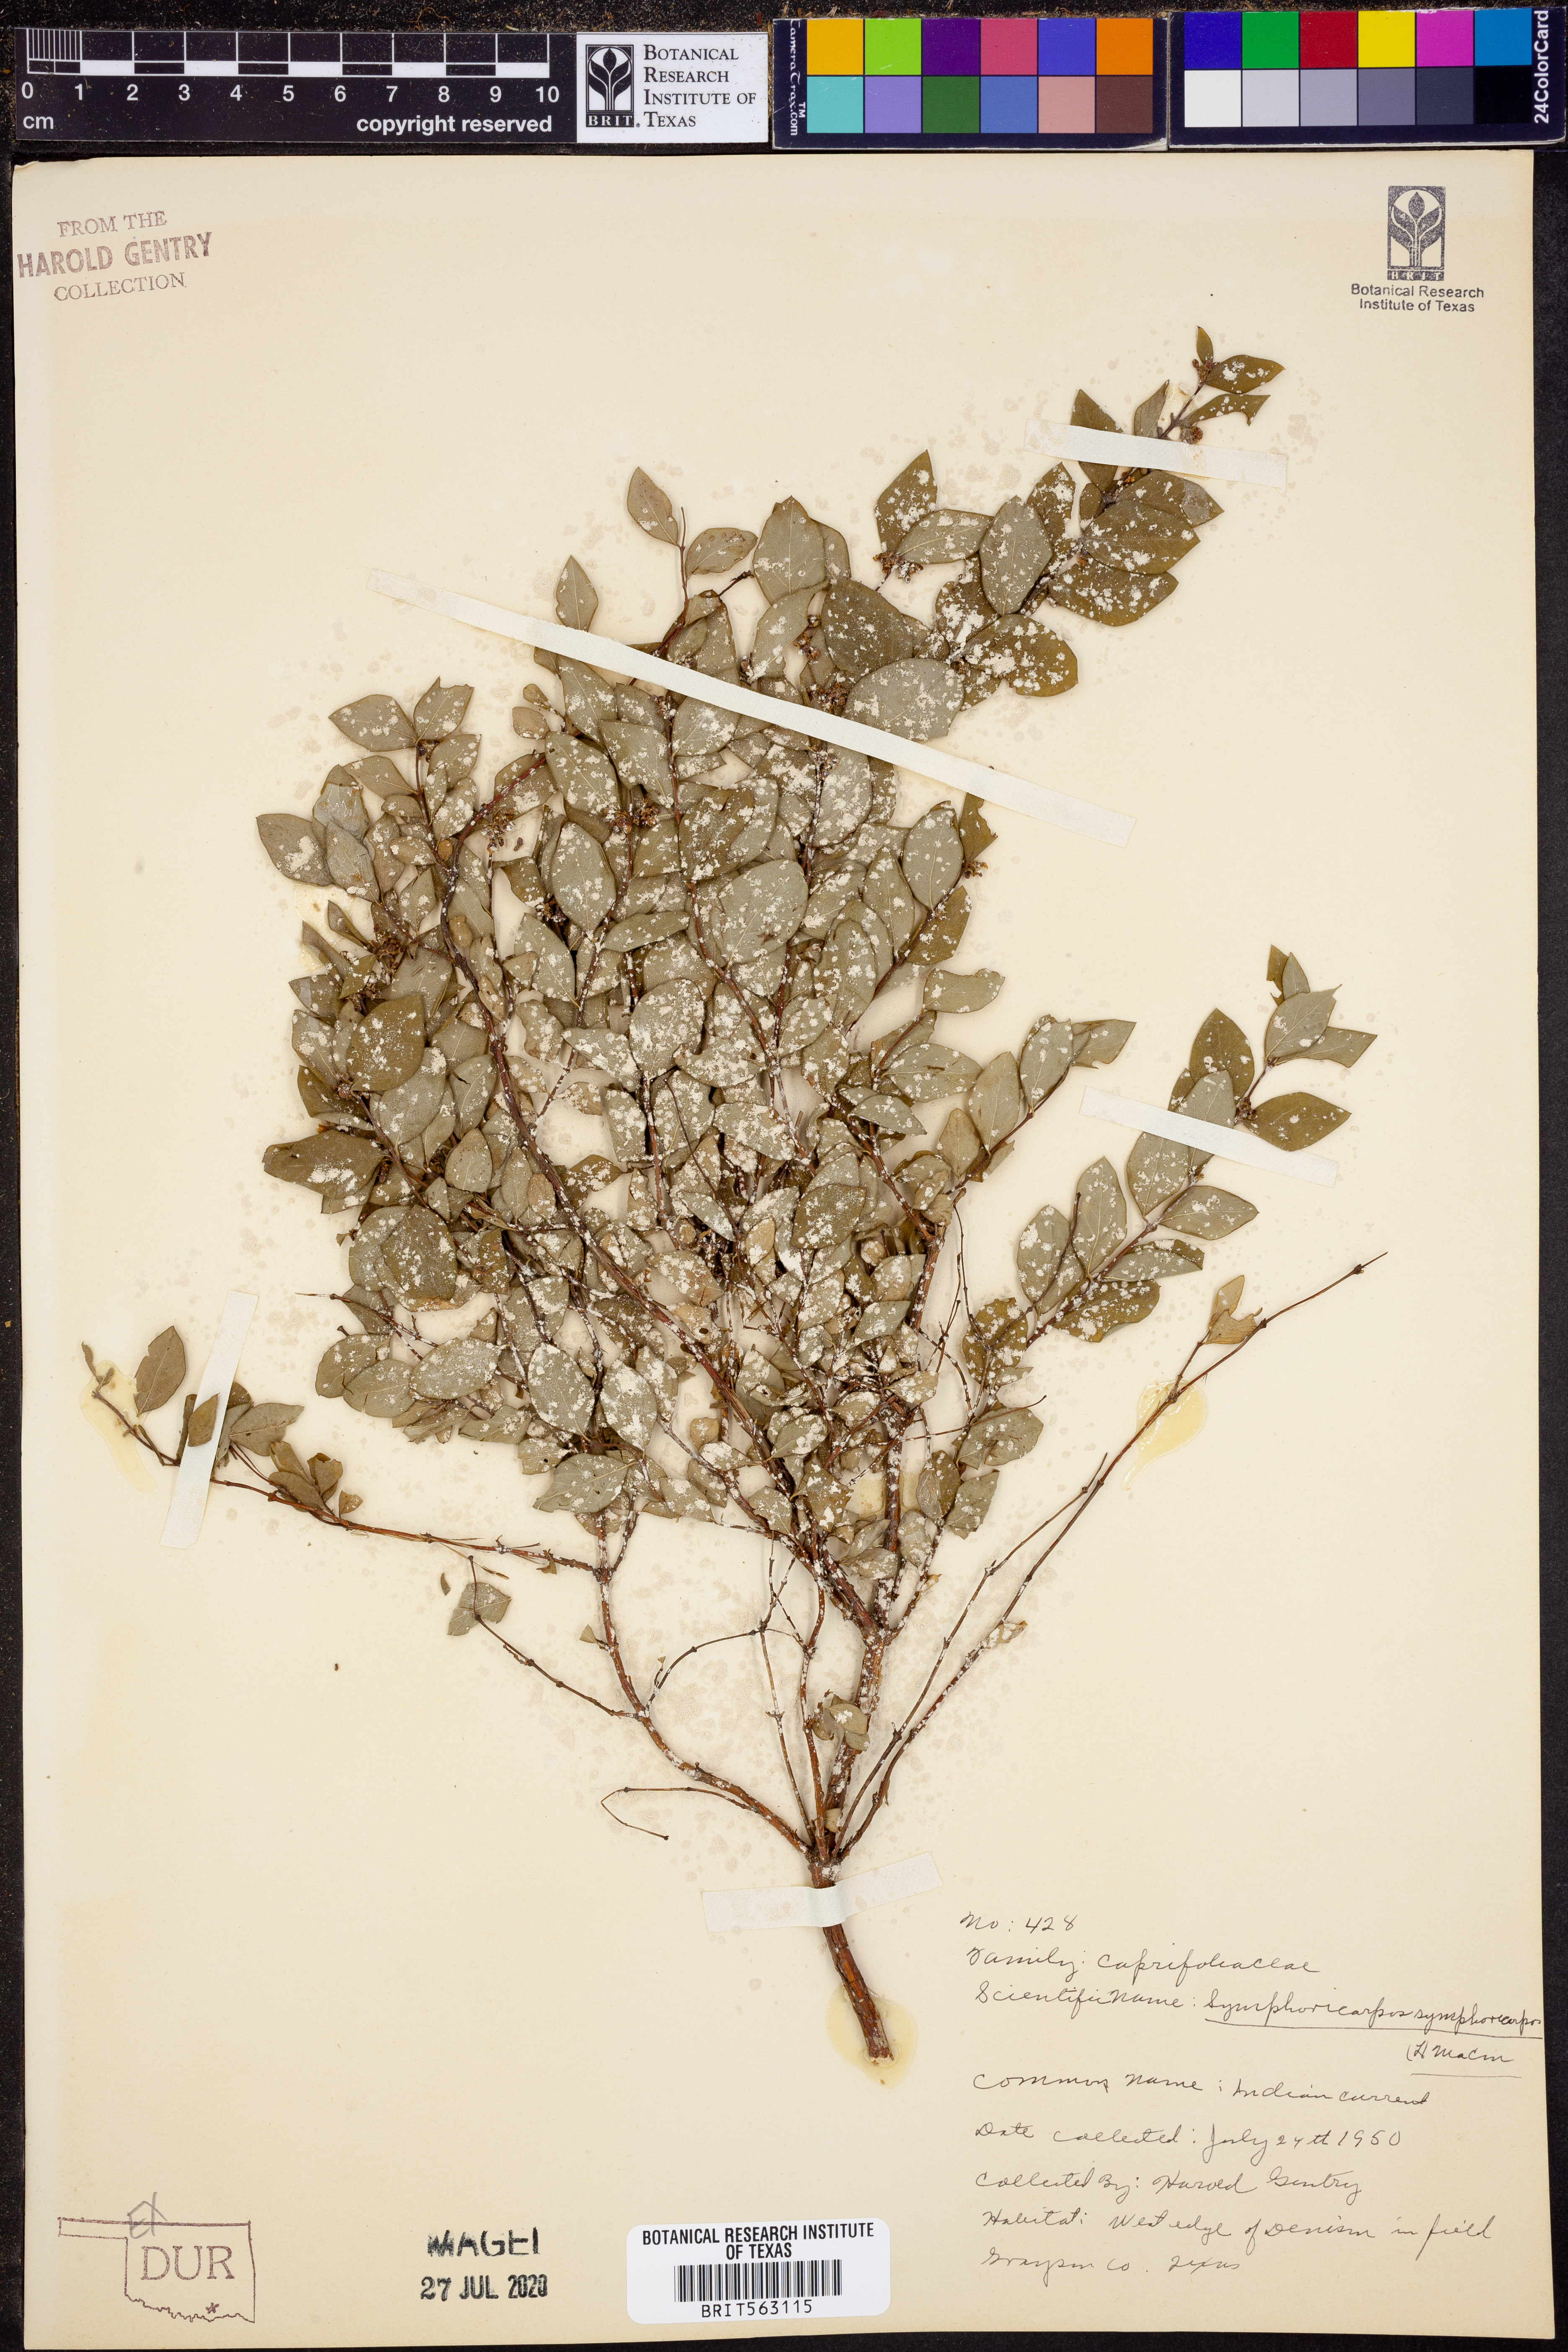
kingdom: Plantae
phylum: Tracheophyta
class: Magnoliopsida
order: Dipsacales
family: Caprifoliaceae
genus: Symphoricarpos
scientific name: Symphoricarpos orbiculatus
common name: Coralberry
